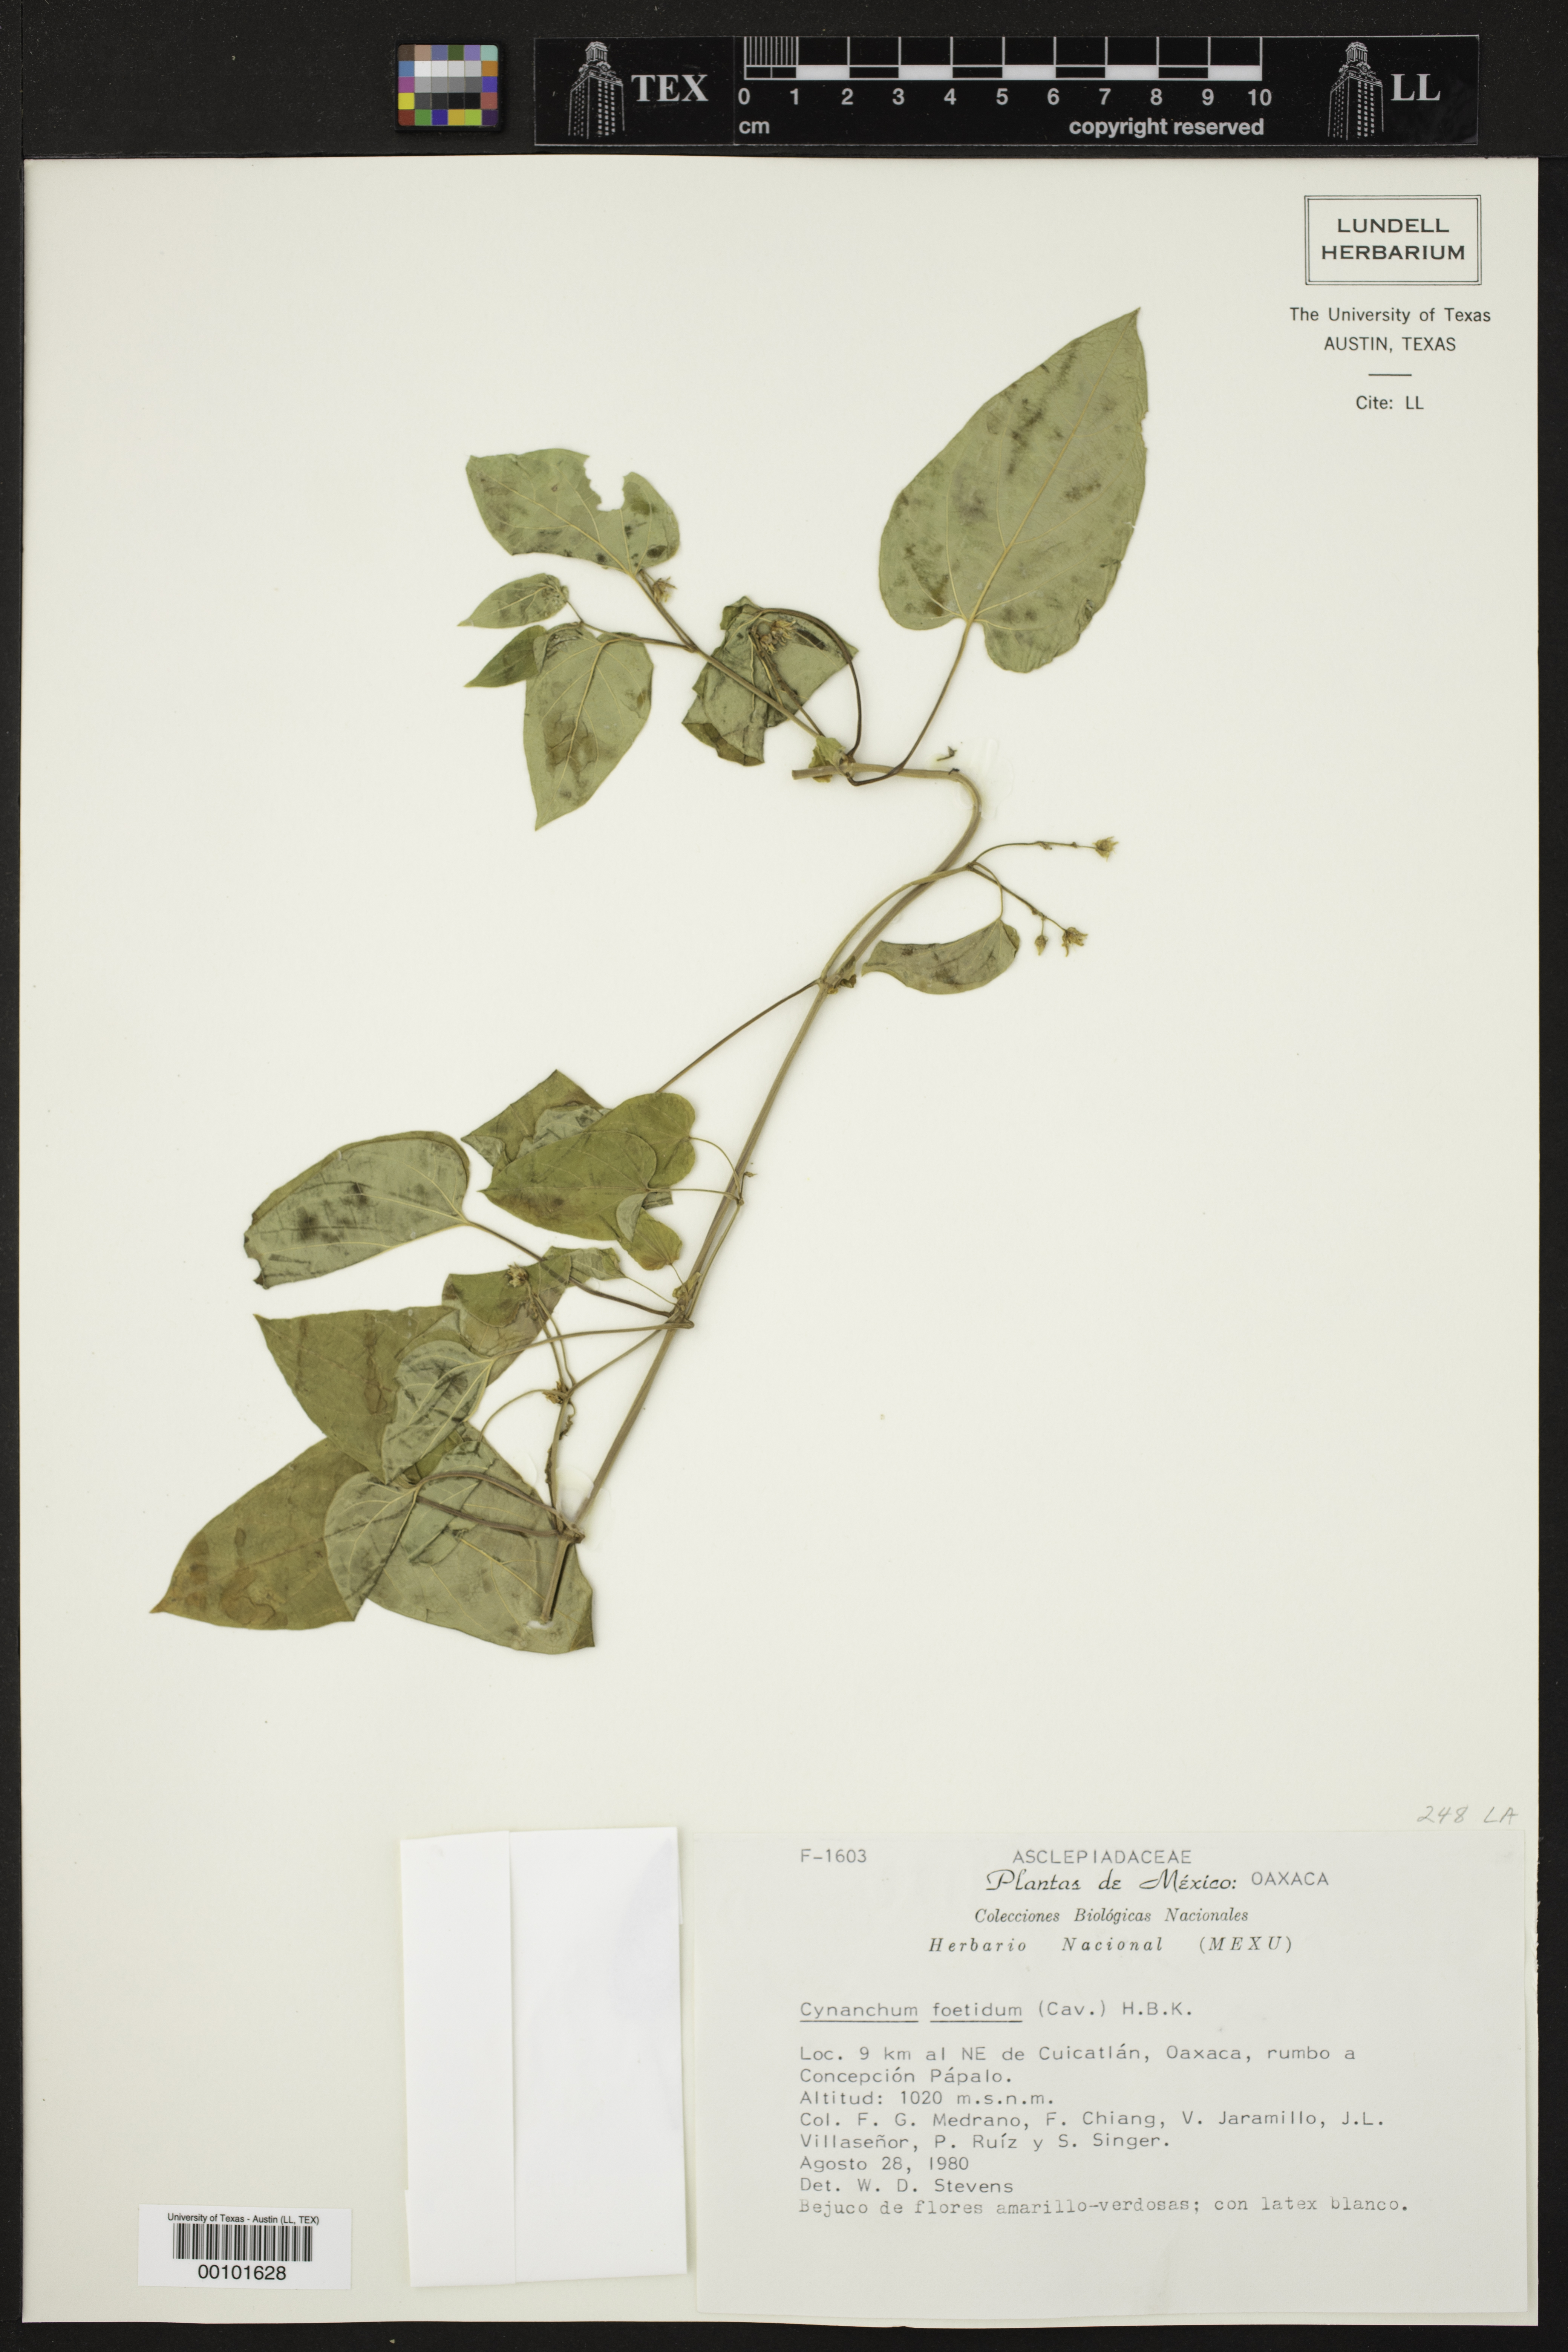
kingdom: Plantae
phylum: Tracheophyta
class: Magnoliopsida
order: Gentianales
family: Apocynaceae
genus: Cynanchum
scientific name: Cynanchum foetidum
